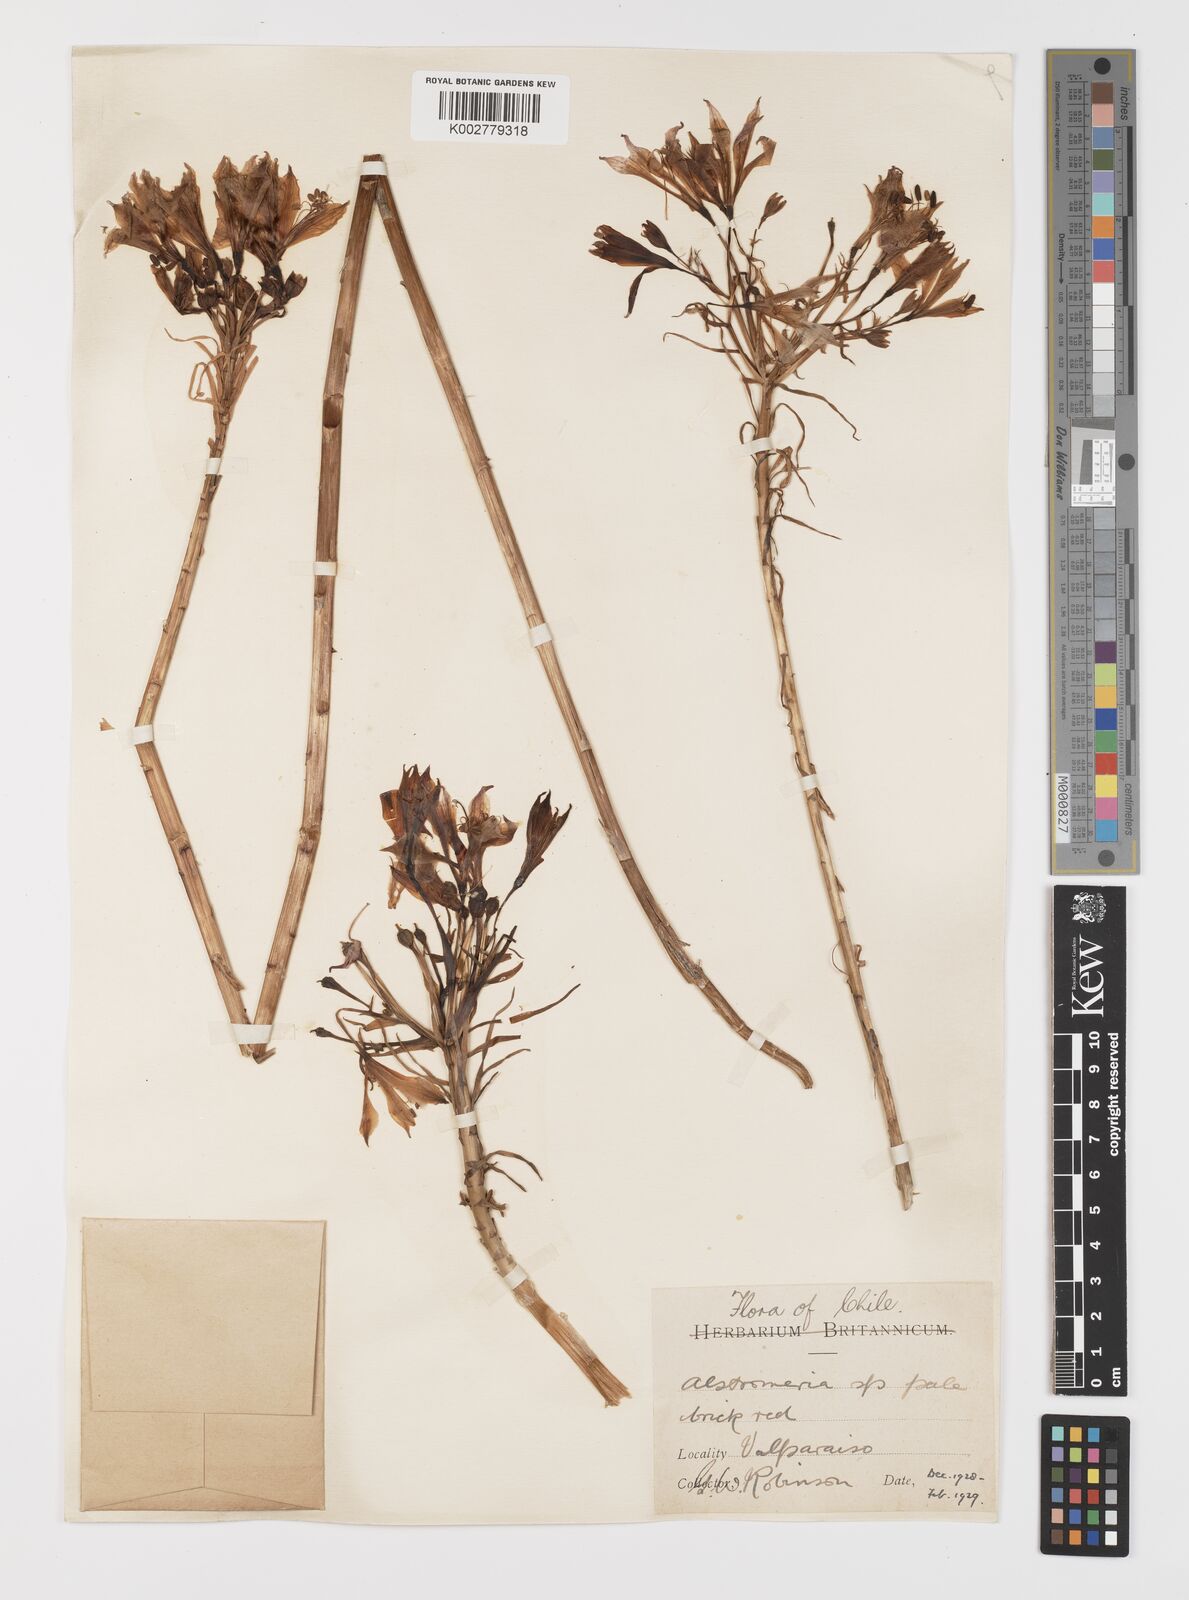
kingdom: Plantae
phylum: Tracheophyta
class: Liliopsida
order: Liliales
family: Alstroemeriaceae
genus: Alstroemeria
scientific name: Alstroemeria ligtu
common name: St. martin's-flower
